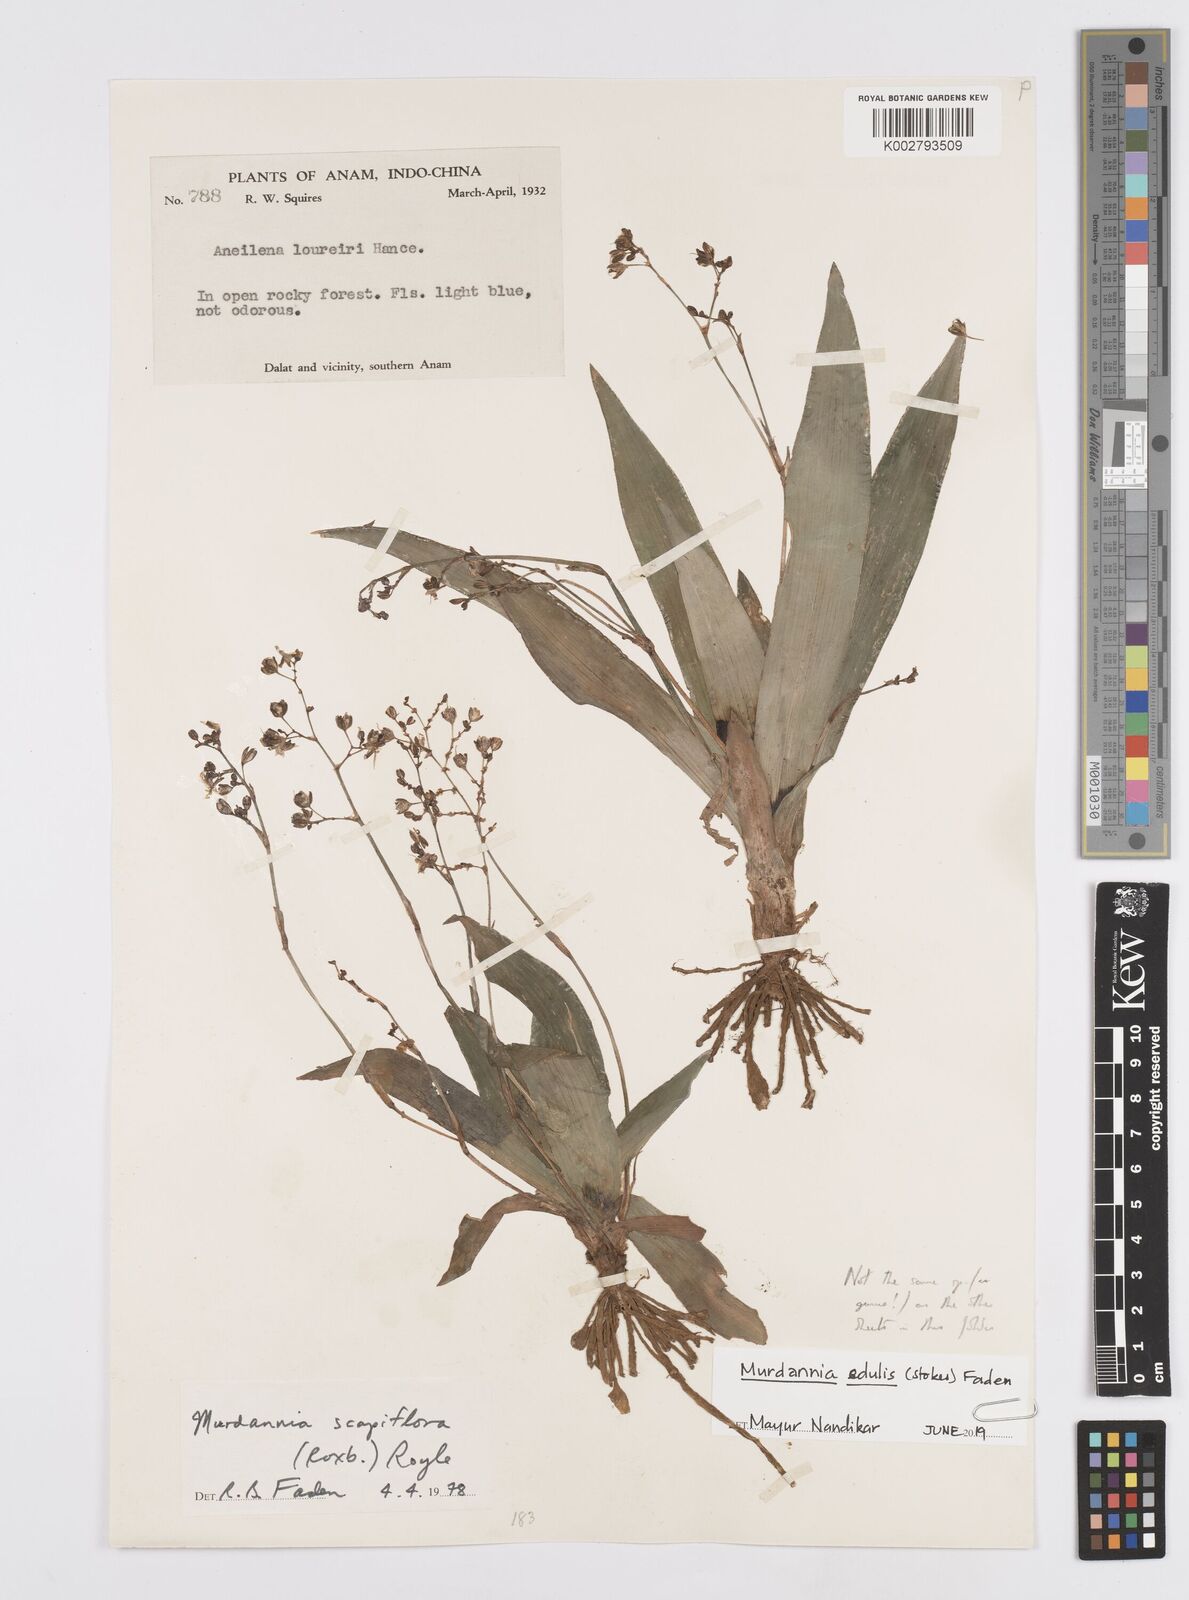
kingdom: Plantae
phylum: Tracheophyta
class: Liliopsida
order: Commelinales
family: Commelinaceae
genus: Murdannia
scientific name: Murdannia edulis
